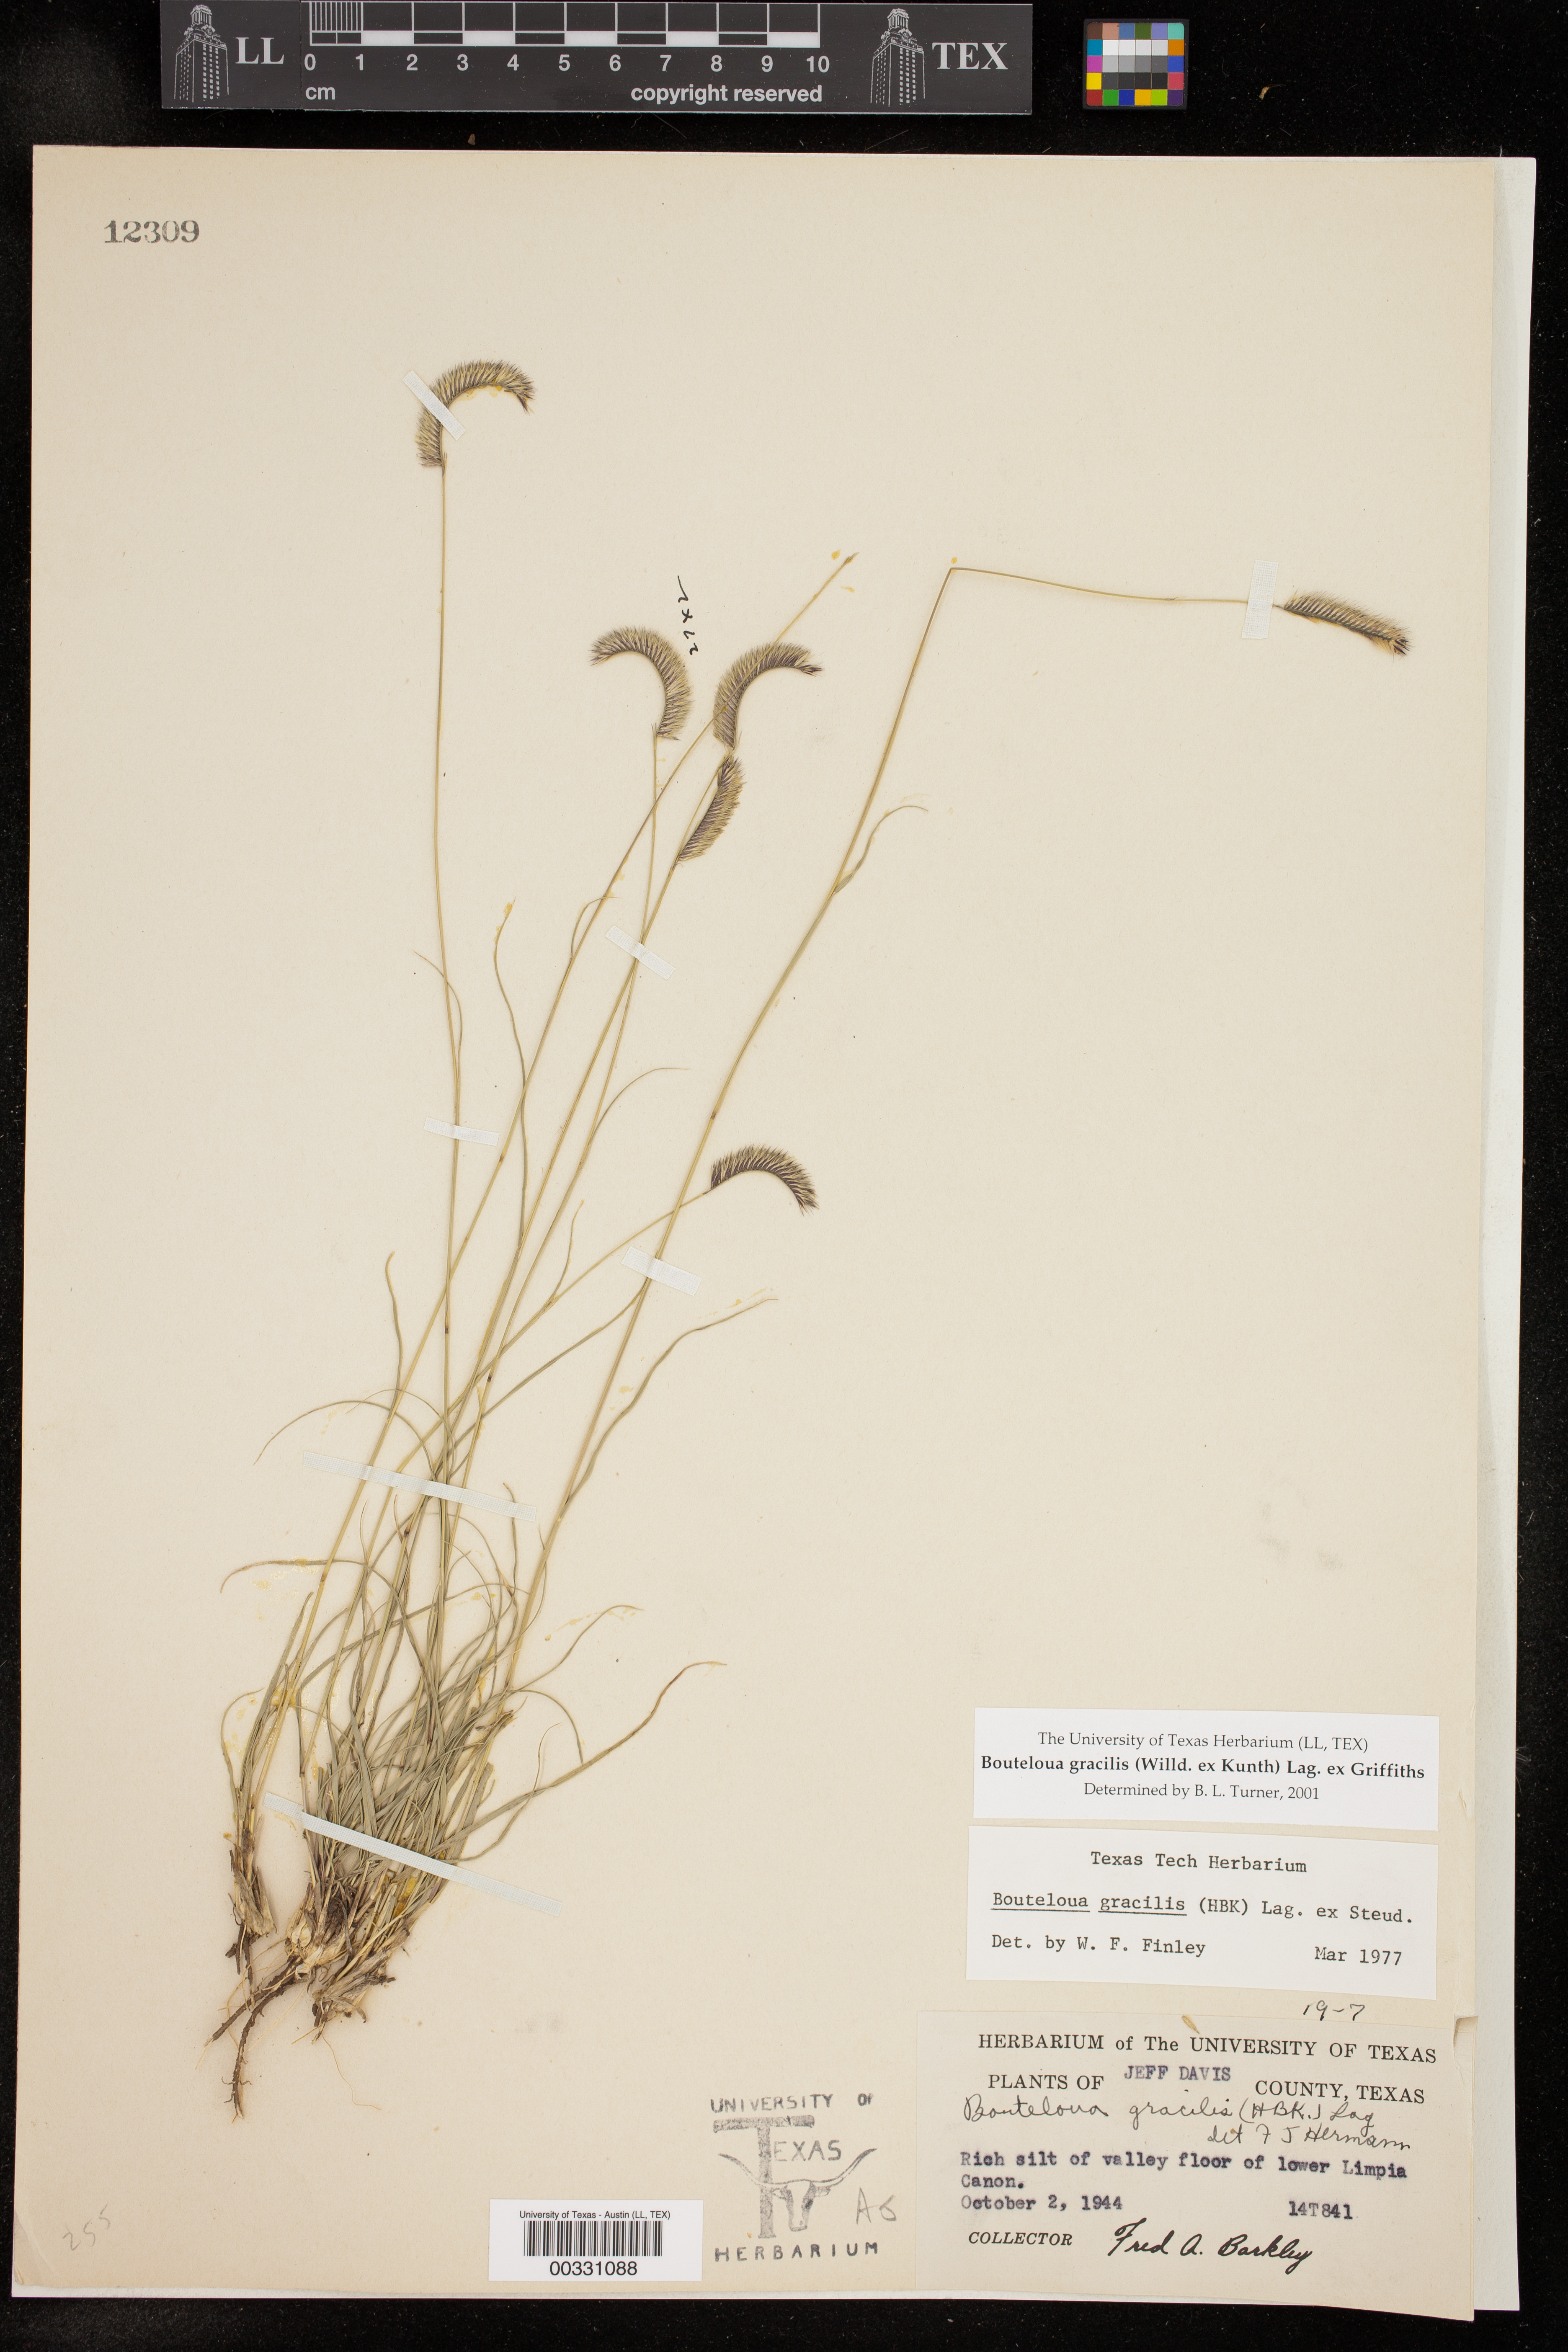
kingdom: Plantae
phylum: Tracheophyta
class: Liliopsida
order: Poales
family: Poaceae
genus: Bouteloua
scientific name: Bouteloua gracilis
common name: Blue grama
